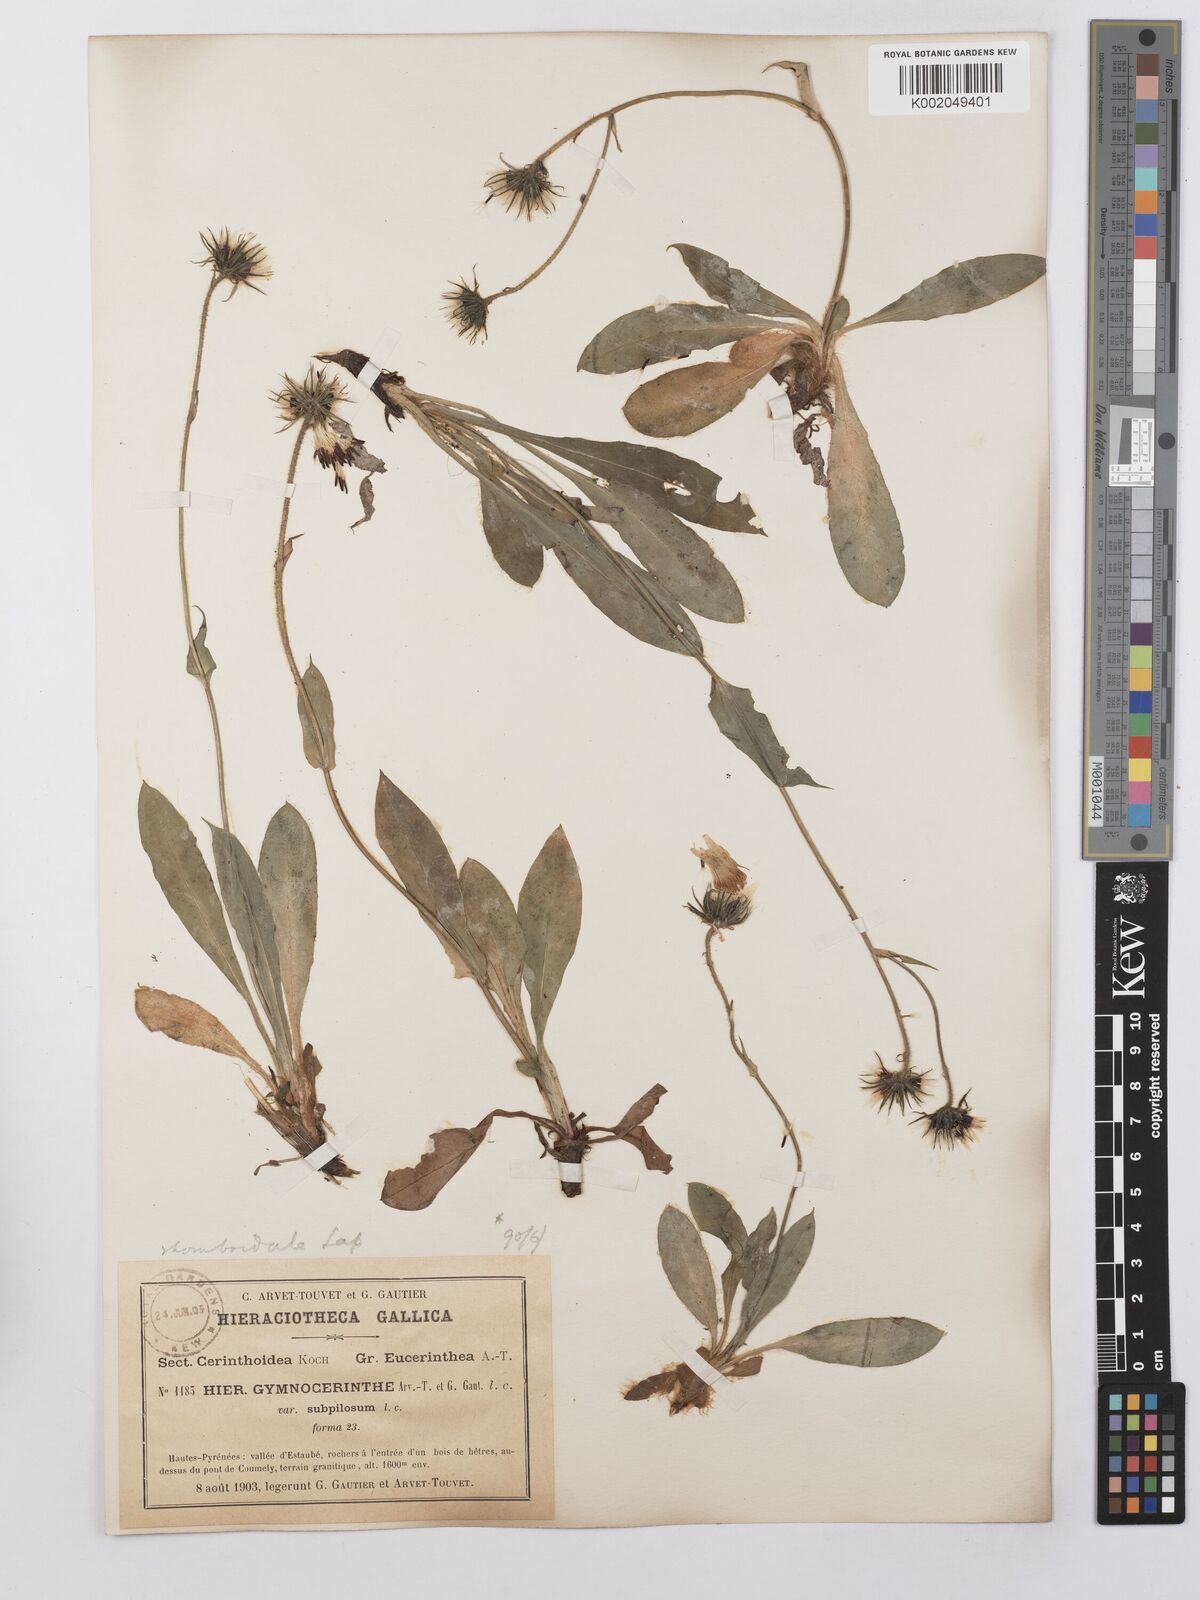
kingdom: Plantae
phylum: Tracheophyta
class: Magnoliopsida
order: Asterales
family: Asteraceae
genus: Hieracium
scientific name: Hieracium cerinthoides
